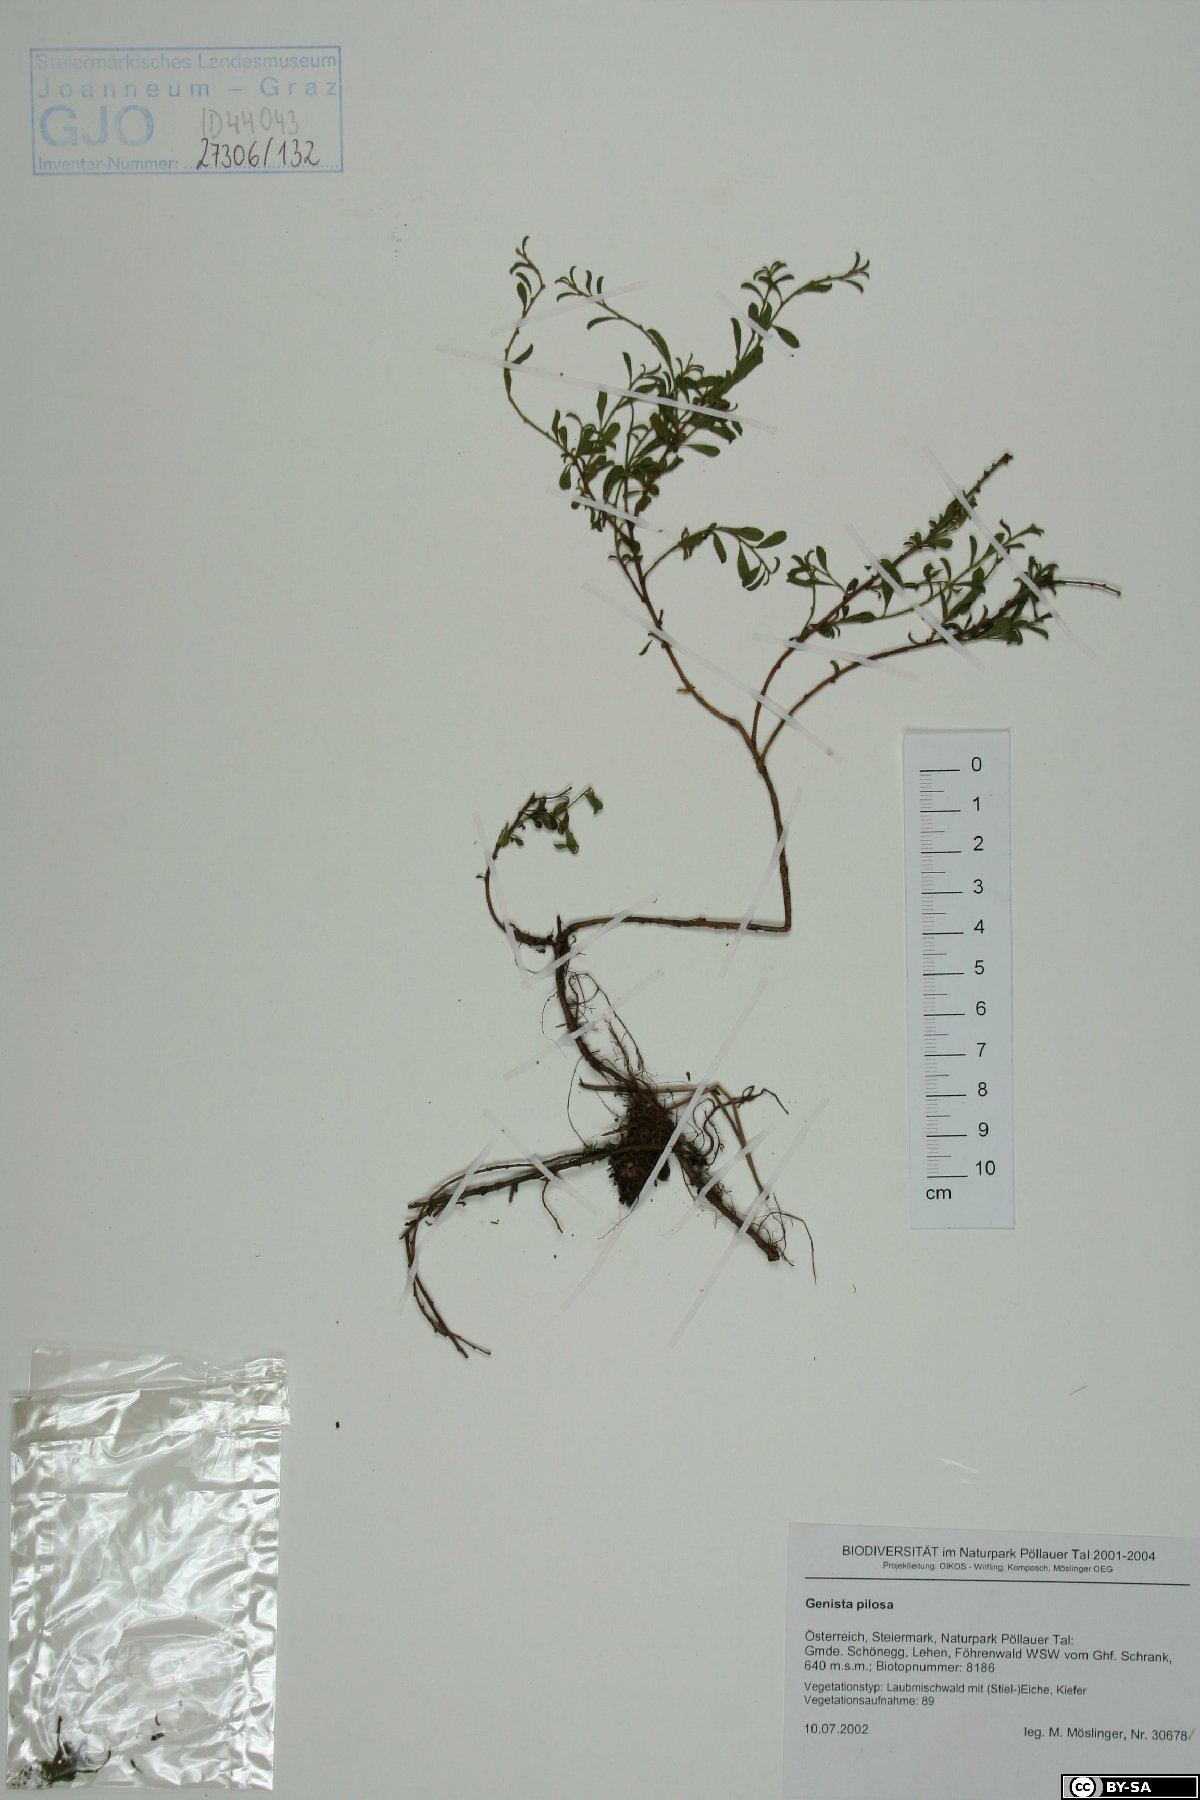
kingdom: Plantae
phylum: Tracheophyta
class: Magnoliopsida
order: Fabales
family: Fabaceae
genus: Genista
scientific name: Genista pilosa
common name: Hairy greenweed
